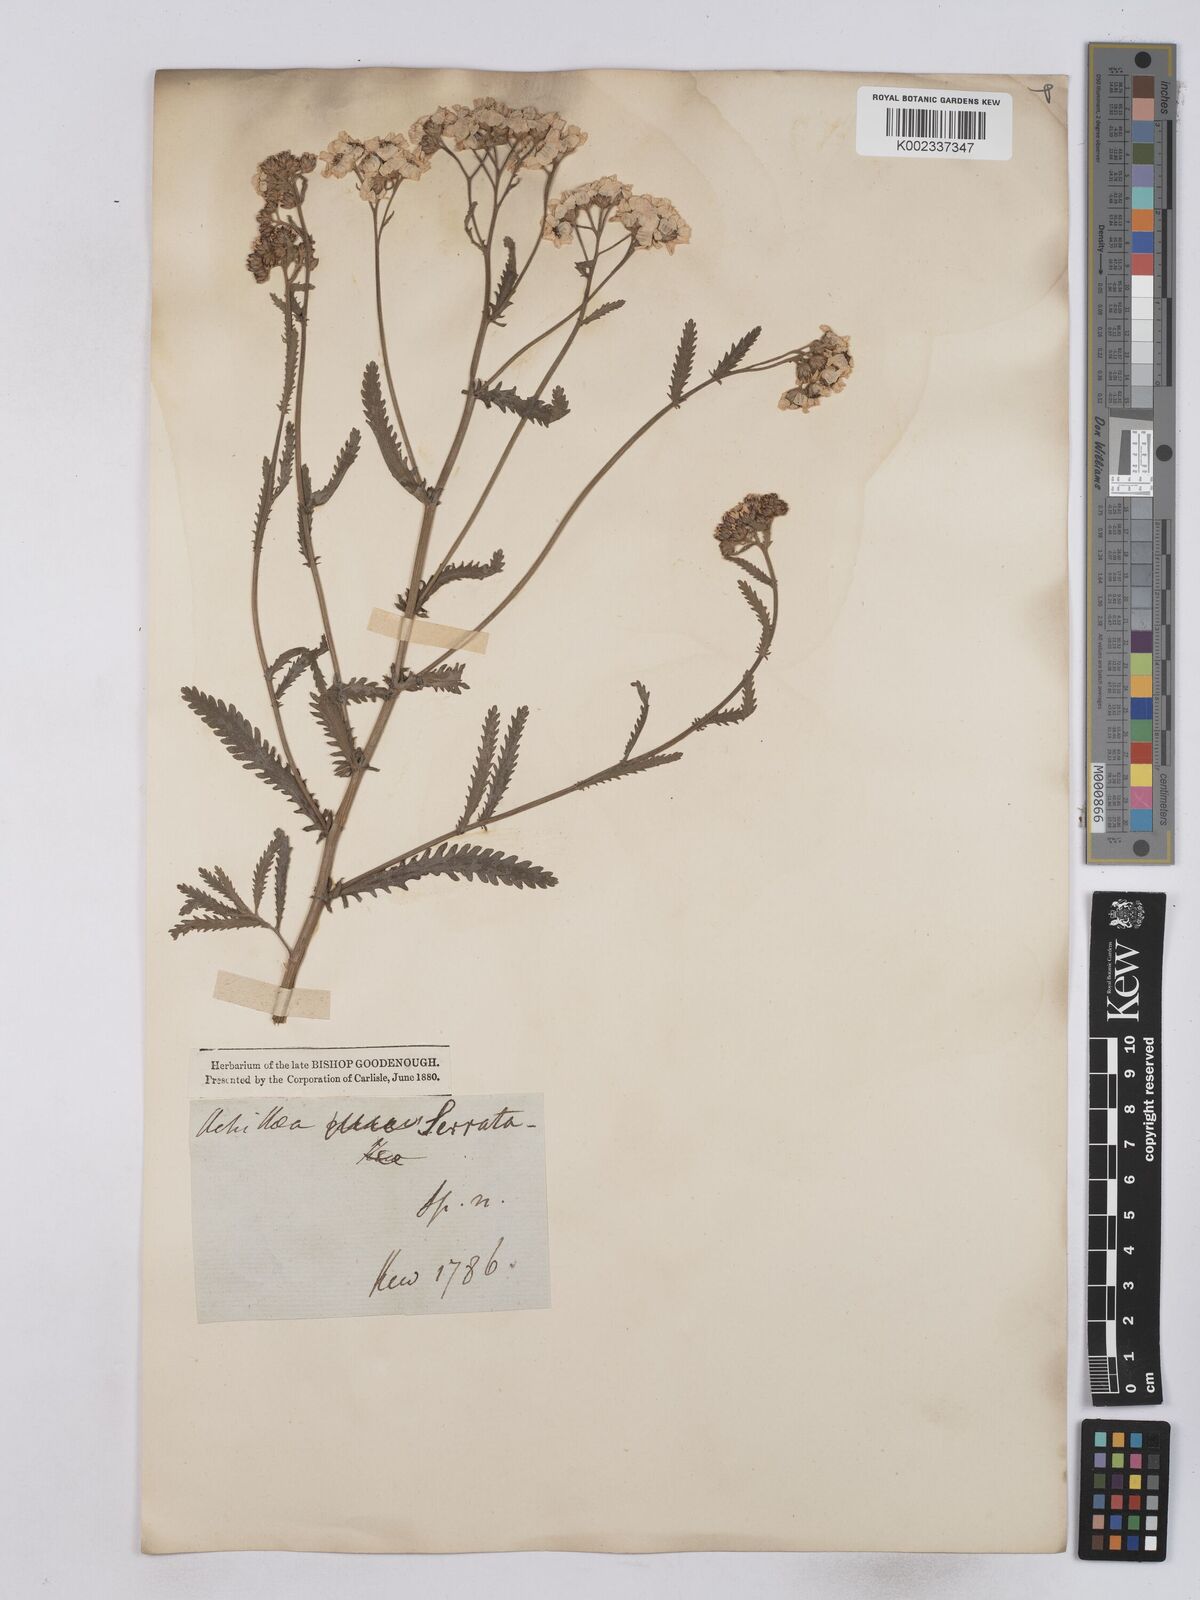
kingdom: Plantae
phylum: Tracheophyta
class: Magnoliopsida
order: Asterales
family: Asteraceae
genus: Achillea
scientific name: Achillea serrata
